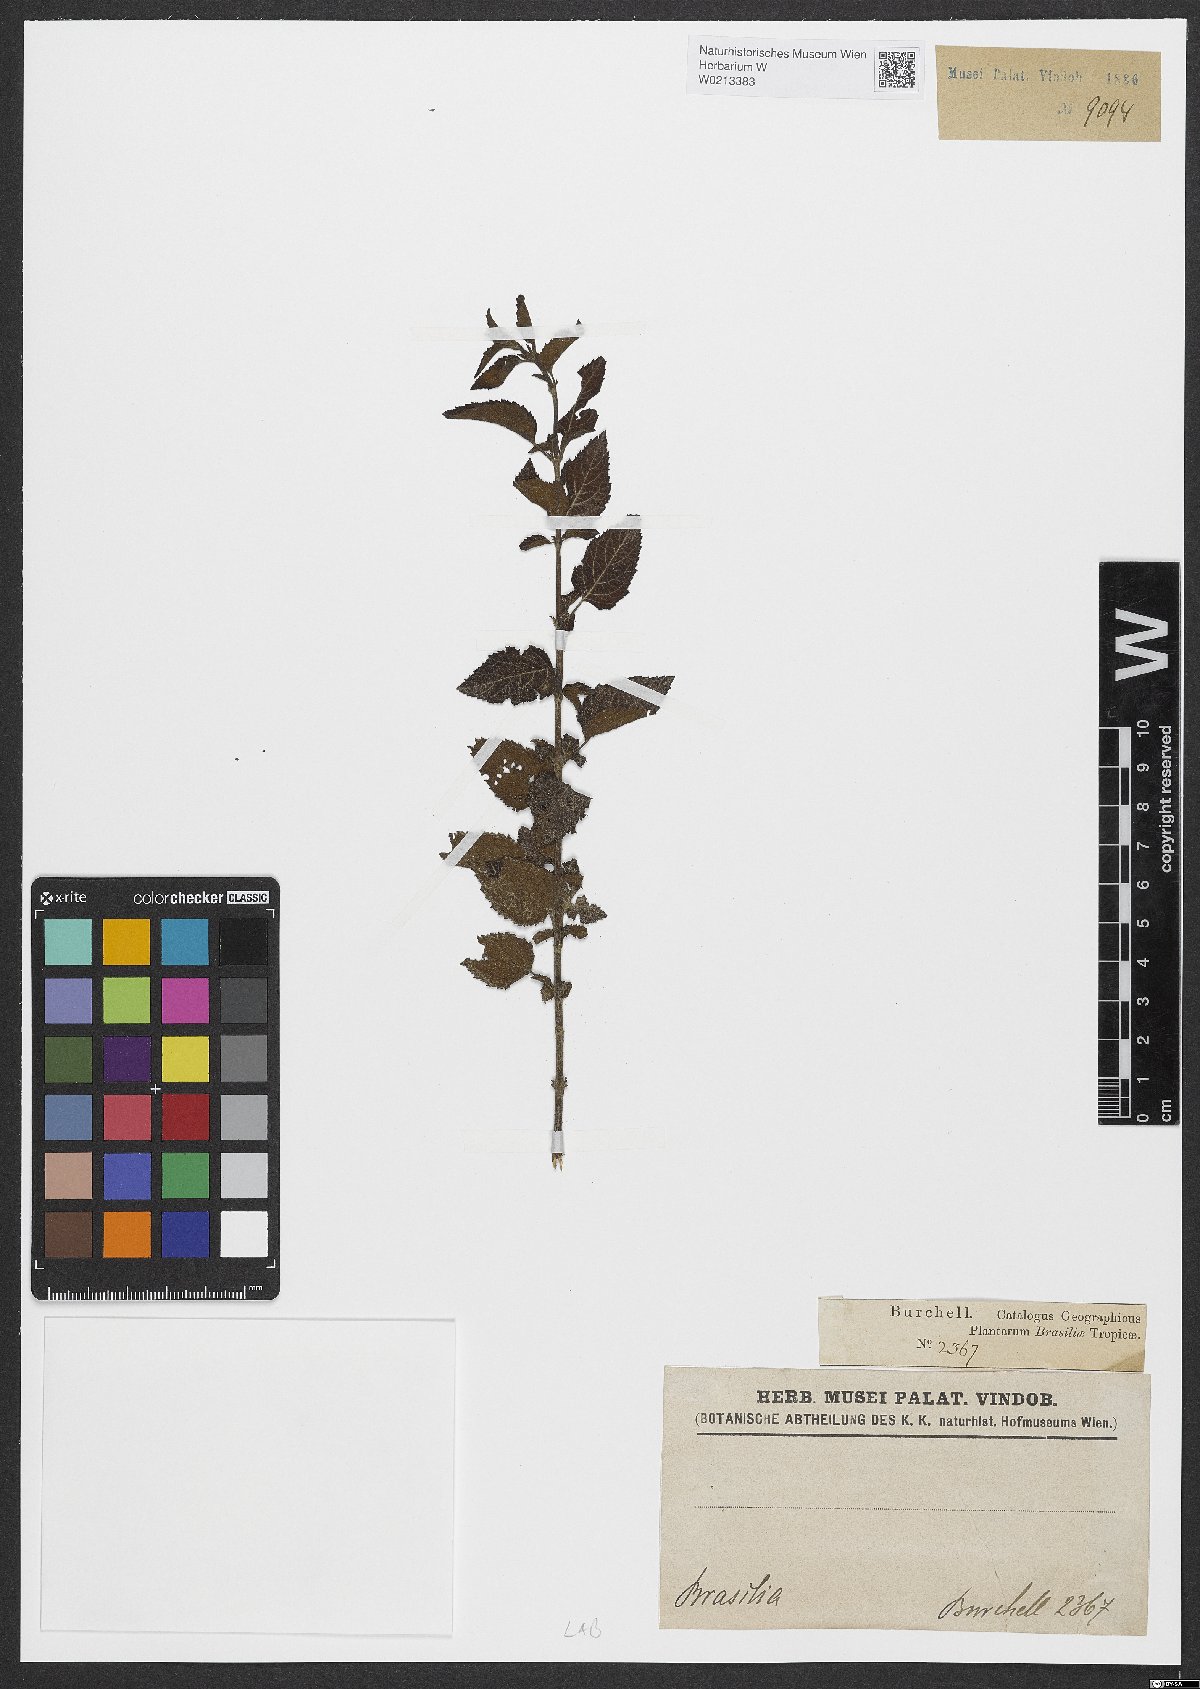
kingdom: Plantae
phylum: Tracheophyta
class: Magnoliopsida
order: Lamiales
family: Lamiaceae
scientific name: Lamiaceae
